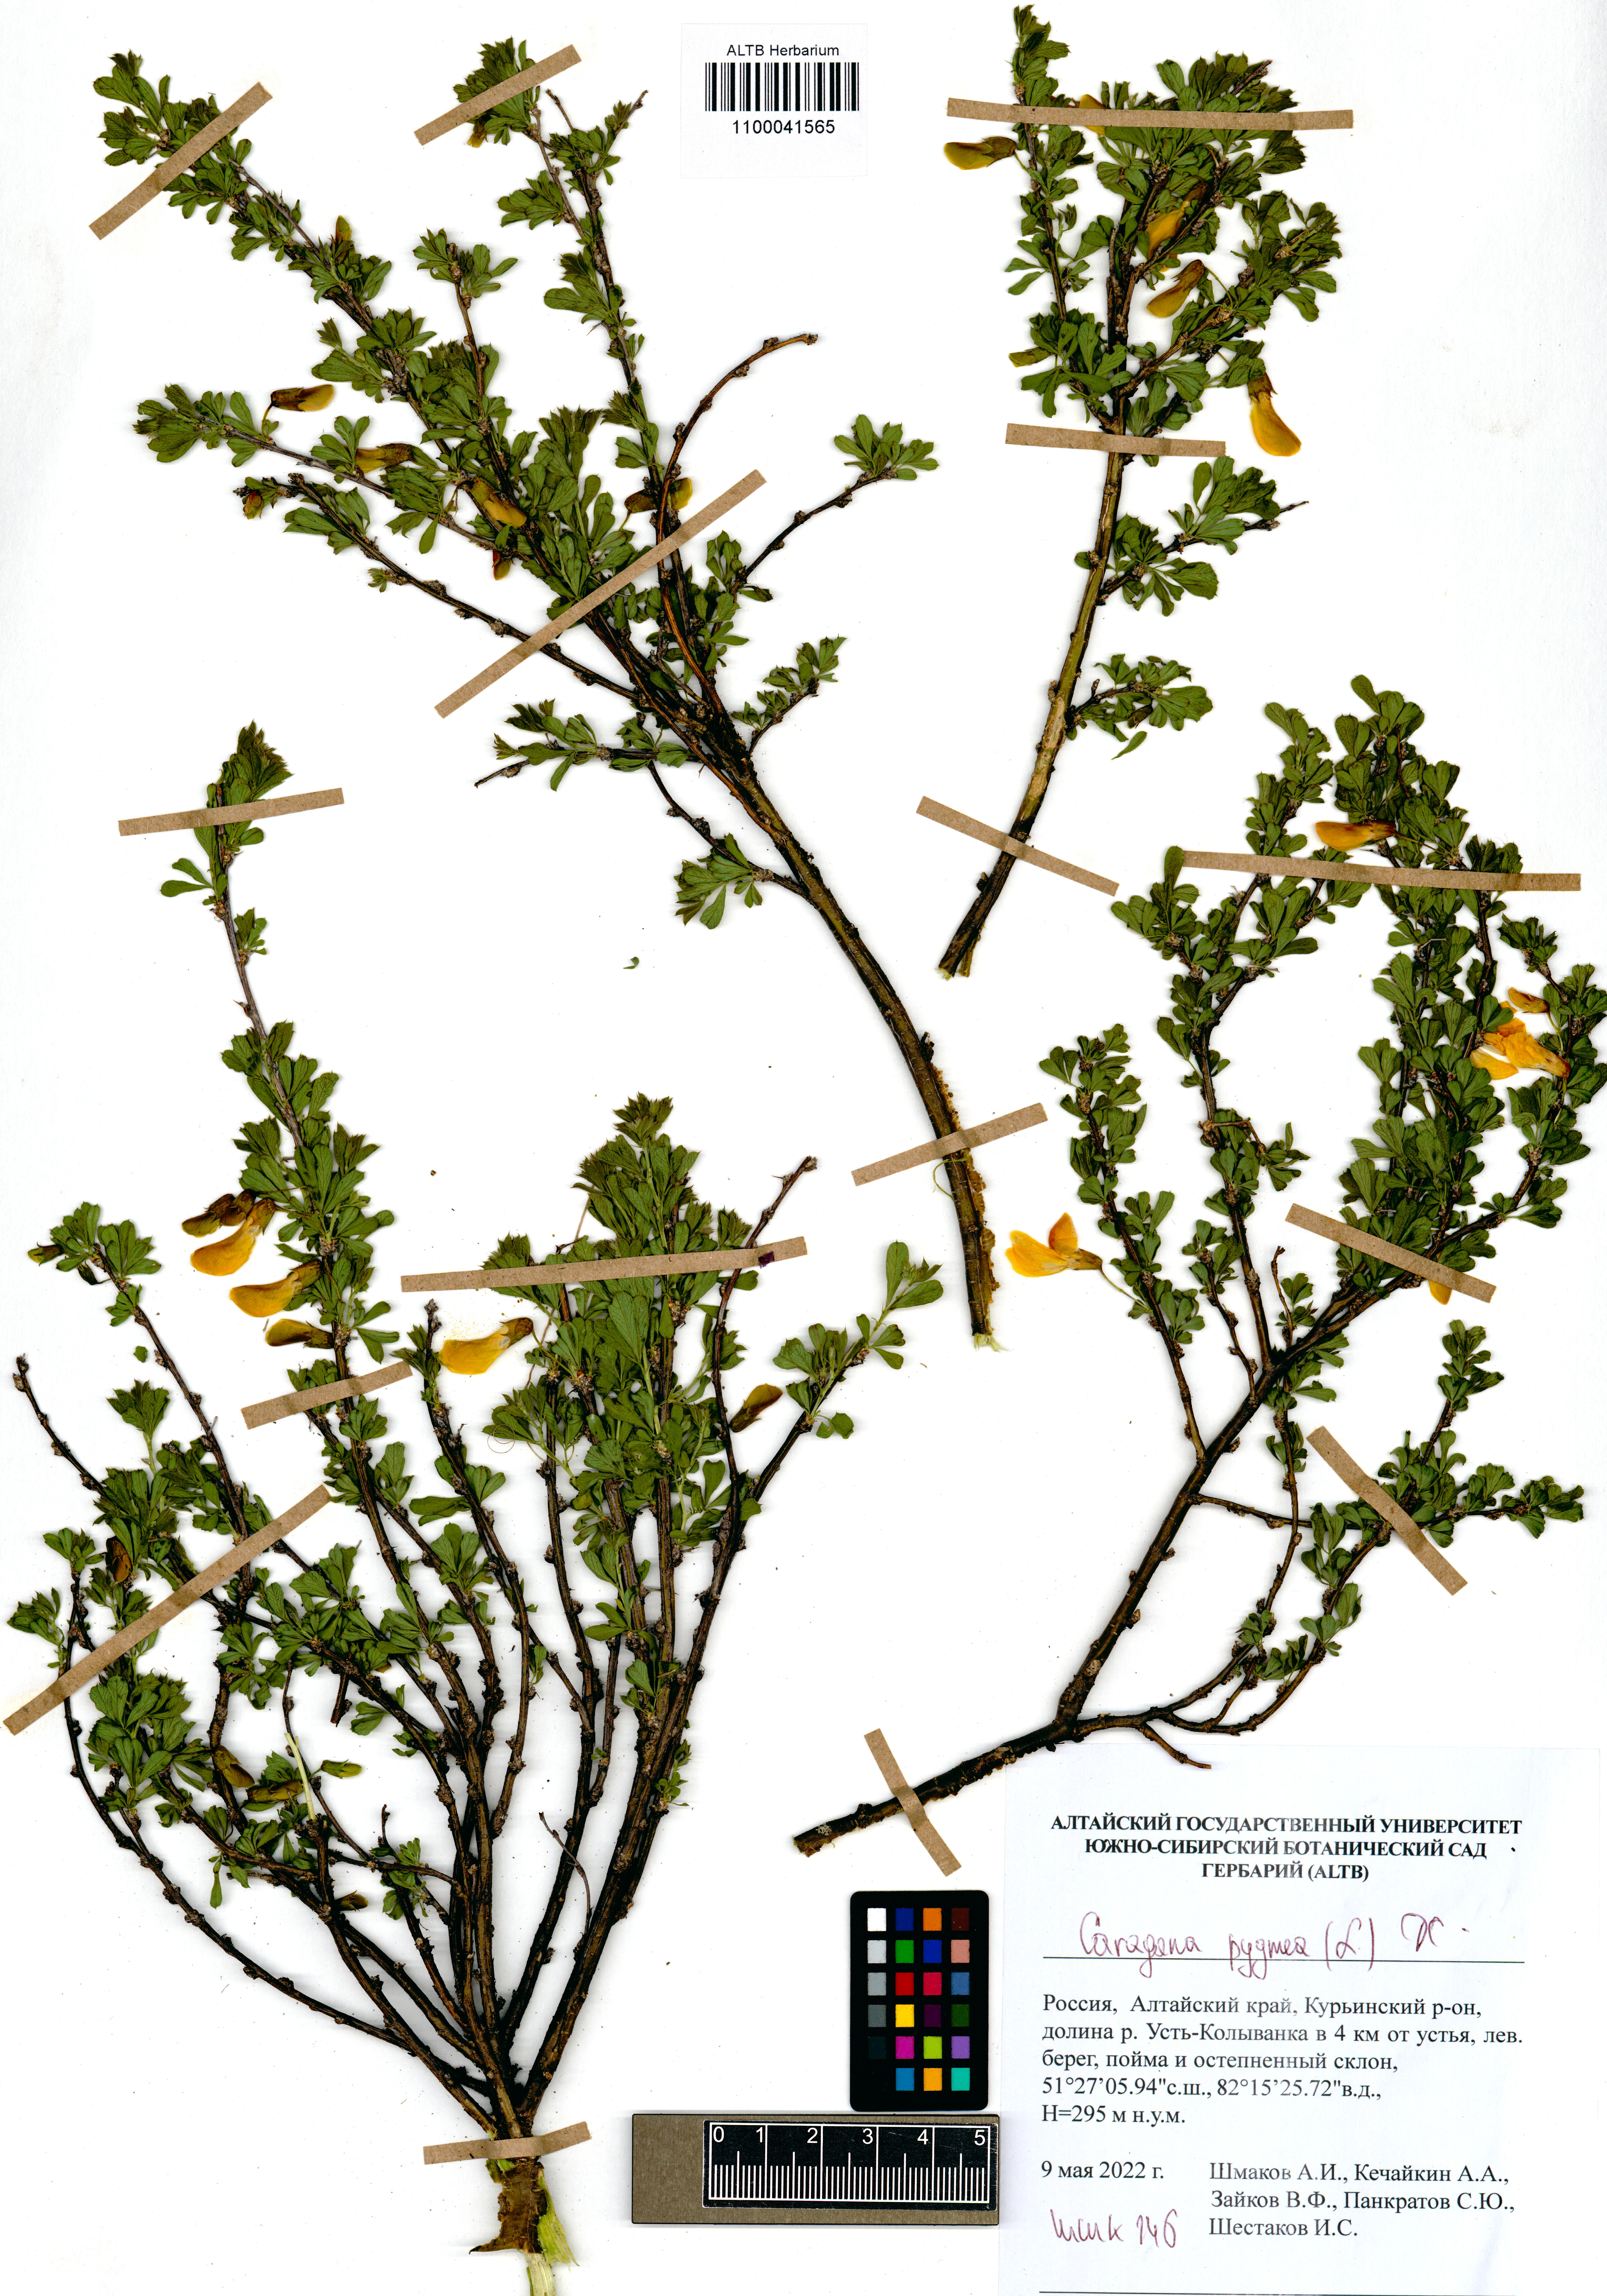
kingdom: Plantae
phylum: Tracheophyta
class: Magnoliopsida
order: Fabales
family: Fabaceae
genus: Caragana
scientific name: Caragana pygmaea
